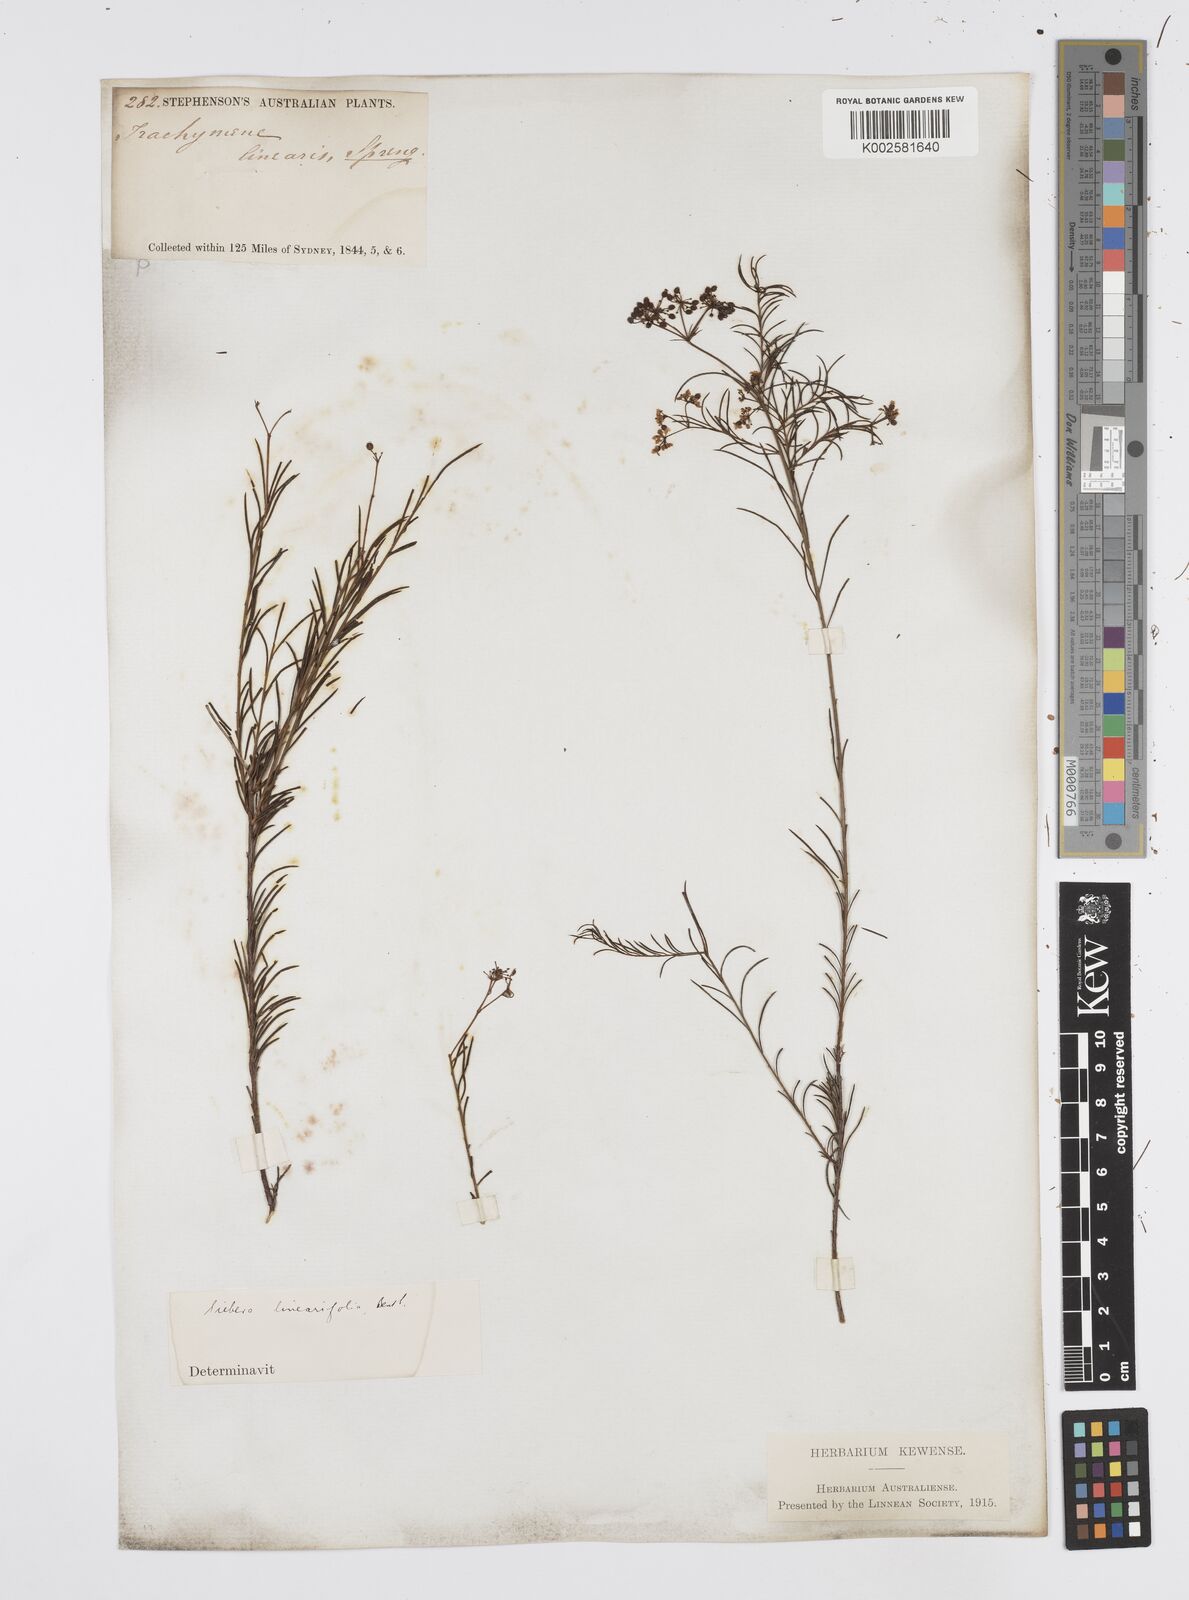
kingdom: Plantae
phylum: Tracheophyta
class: Magnoliopsida
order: Apiales
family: Apiaceae
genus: Platysace
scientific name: Platysace linearifolia
